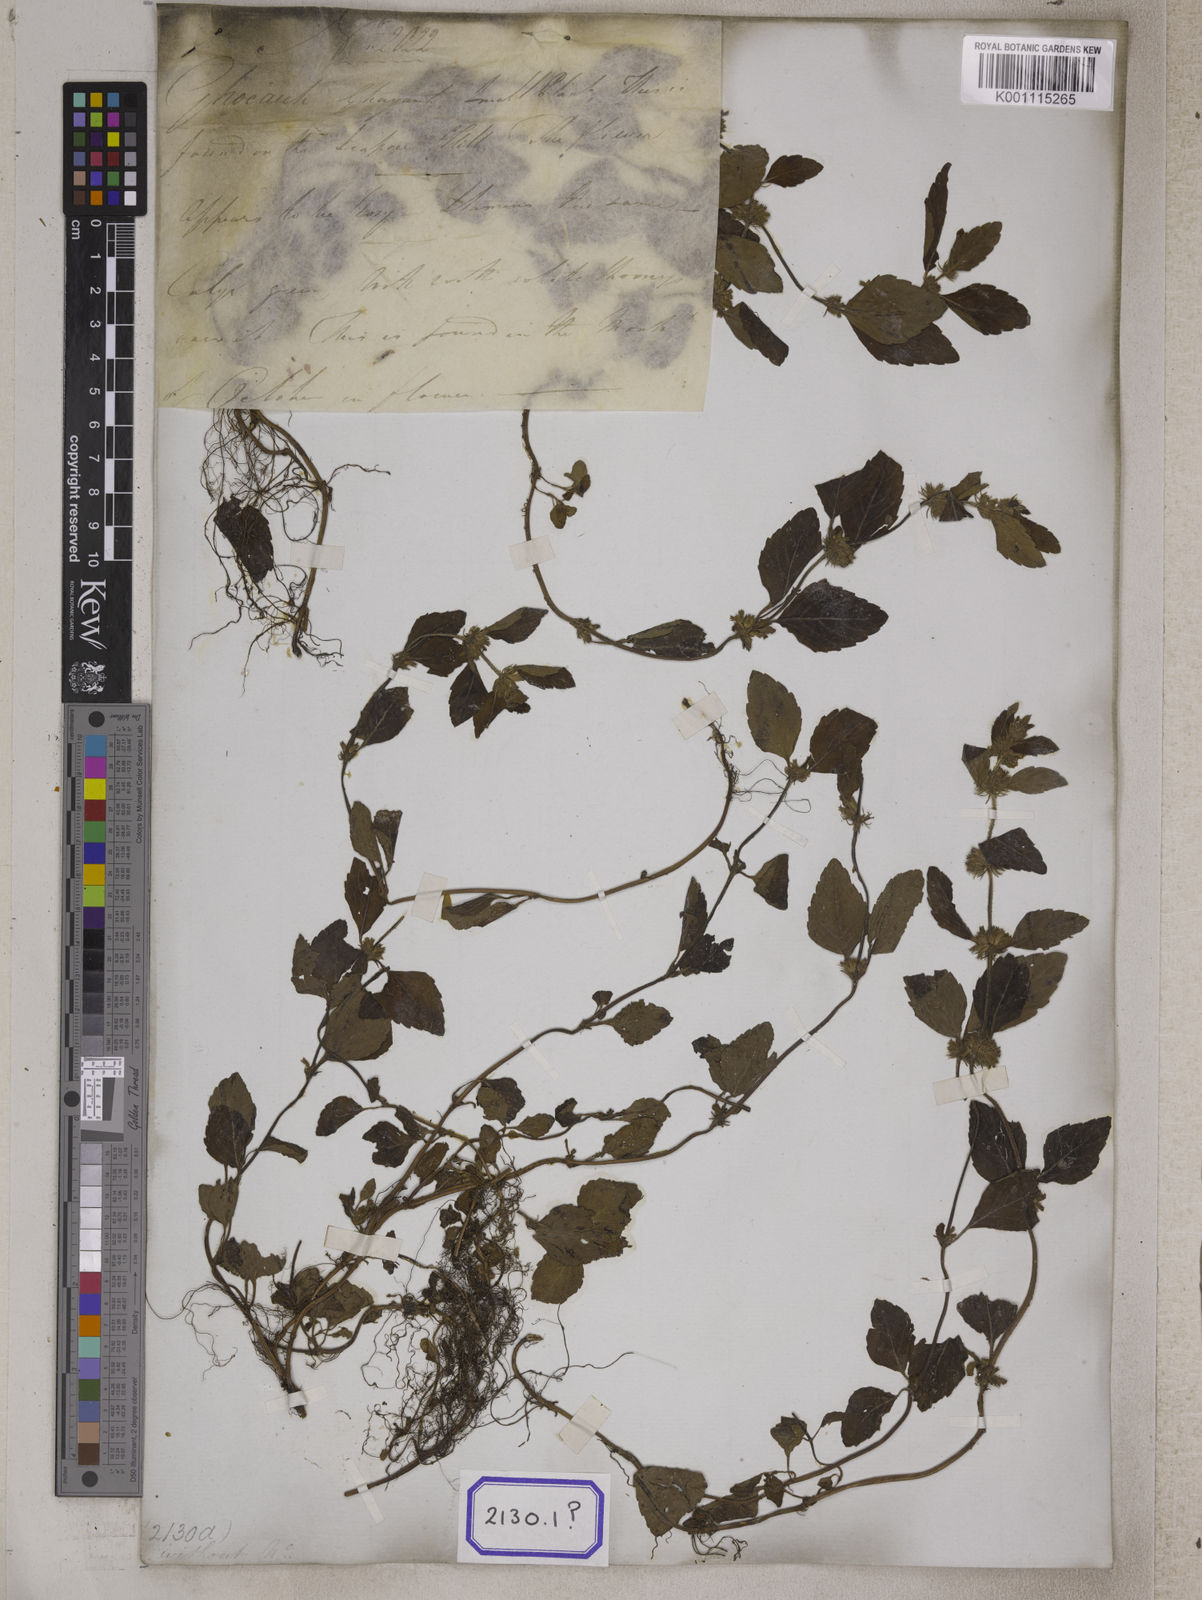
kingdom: Plantae
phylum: Tracheophyta
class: Magnoliopsida
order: Lamiales
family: Lamiaceae
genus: Clinopodium
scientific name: Clinopodium
